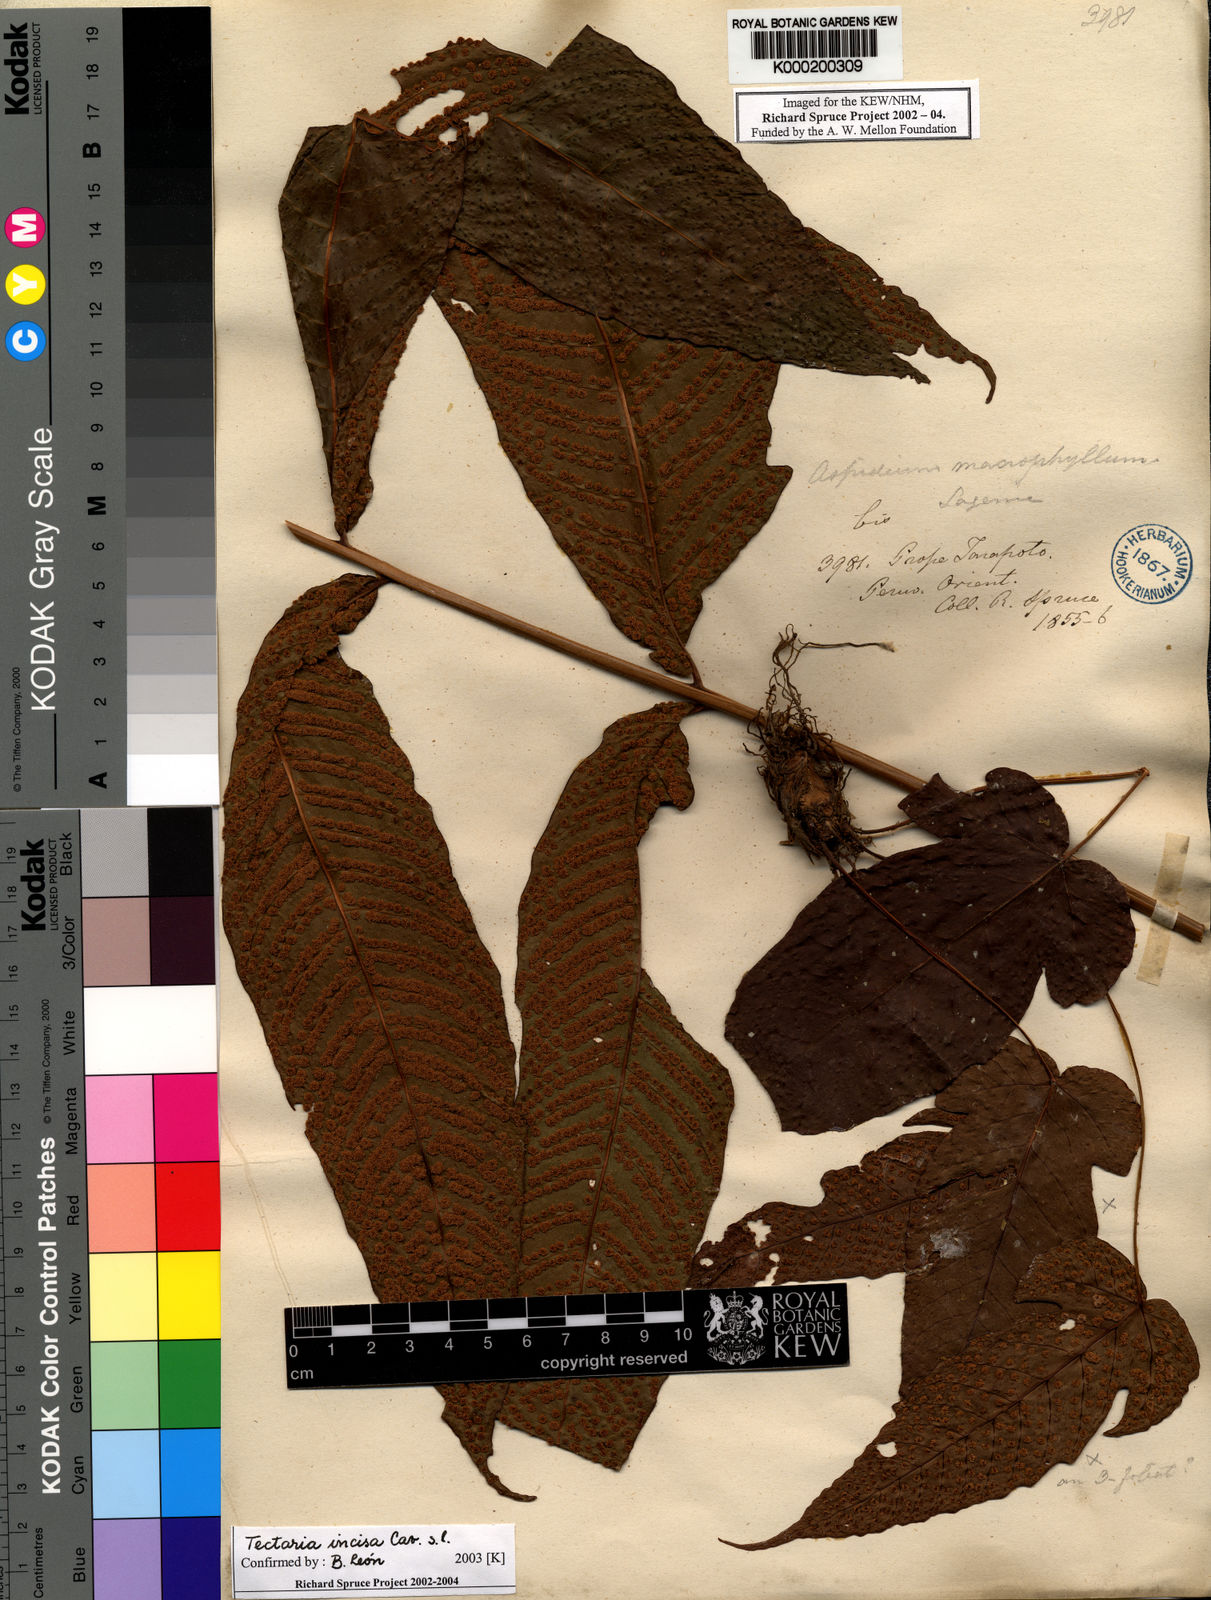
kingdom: Plantae
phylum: Tracheophyta
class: Polypodiopsida
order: Polypodiales
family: Tectariaceae
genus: Tectaria
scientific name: Tectaria incisa
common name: Incised halberd fern
